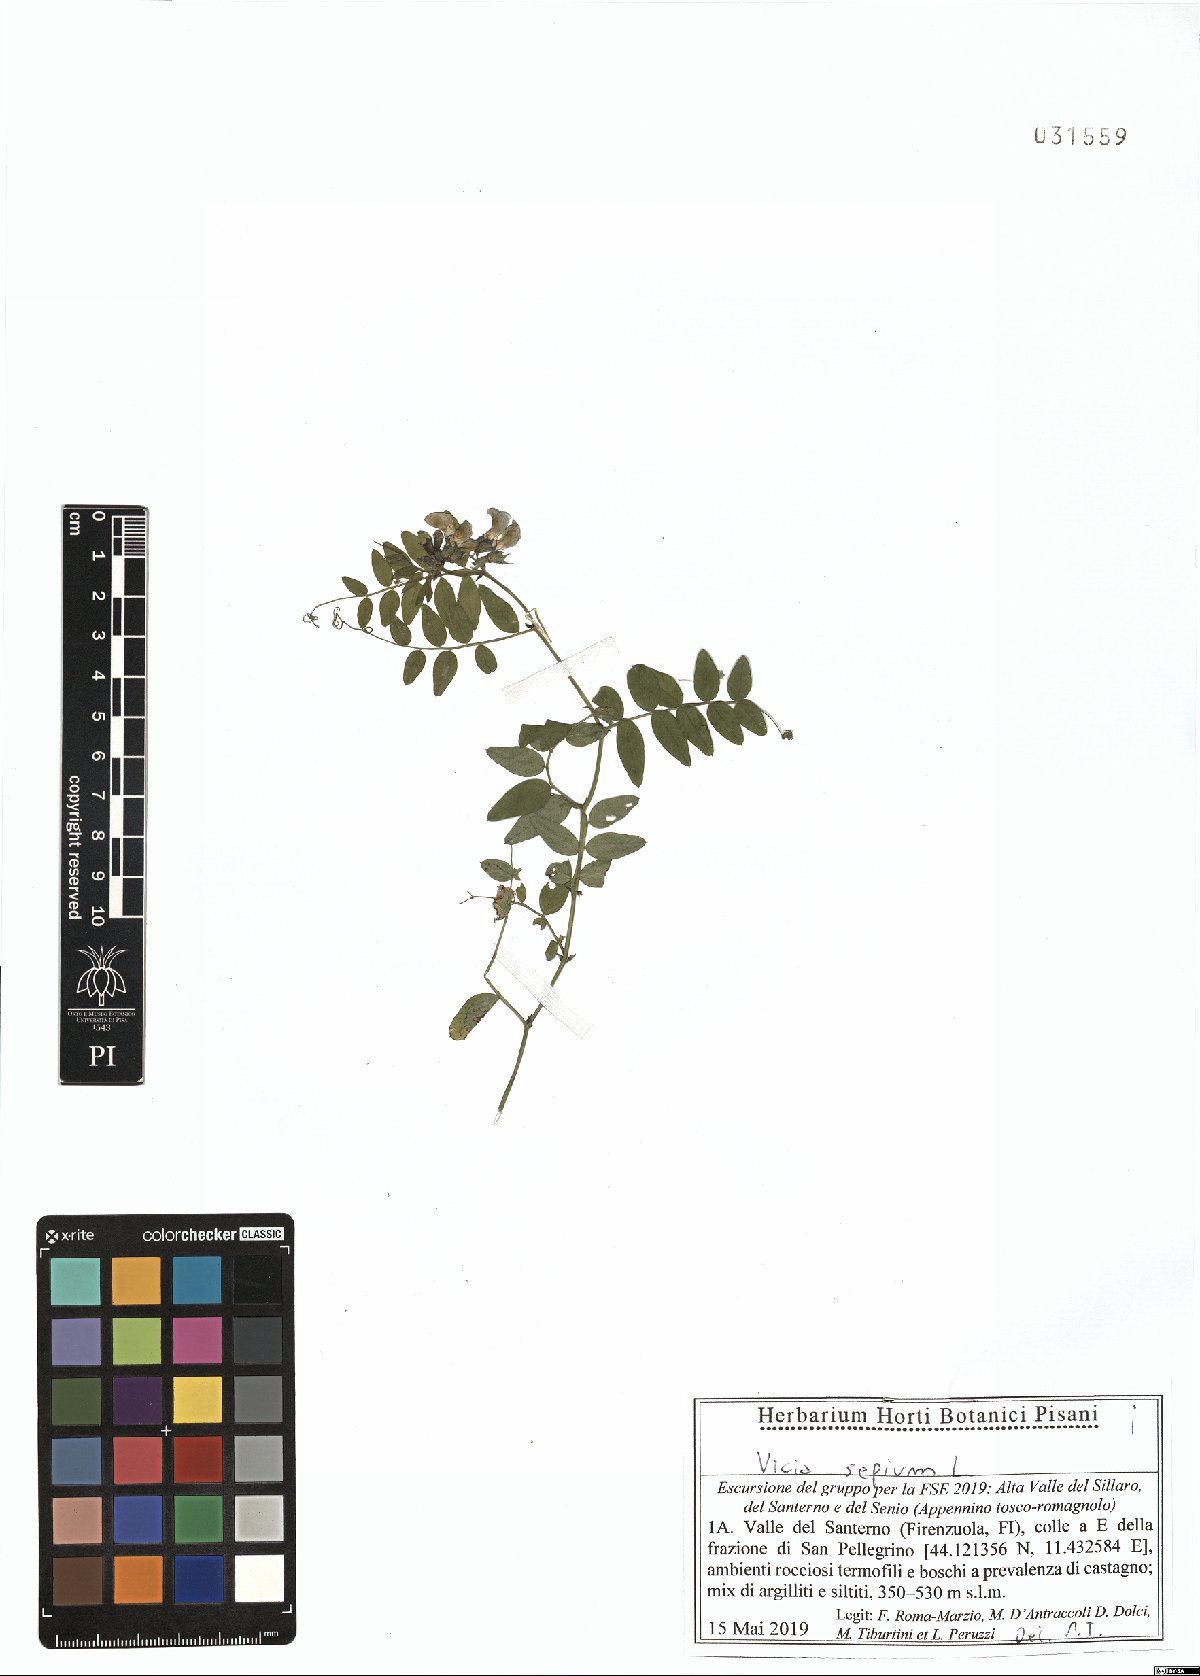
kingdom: Plantae
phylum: Tracheophyta
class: Magnoliopsida
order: Fabales
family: Fabaceae
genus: Vicia
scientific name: Vicia sepium
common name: Bush vetch
